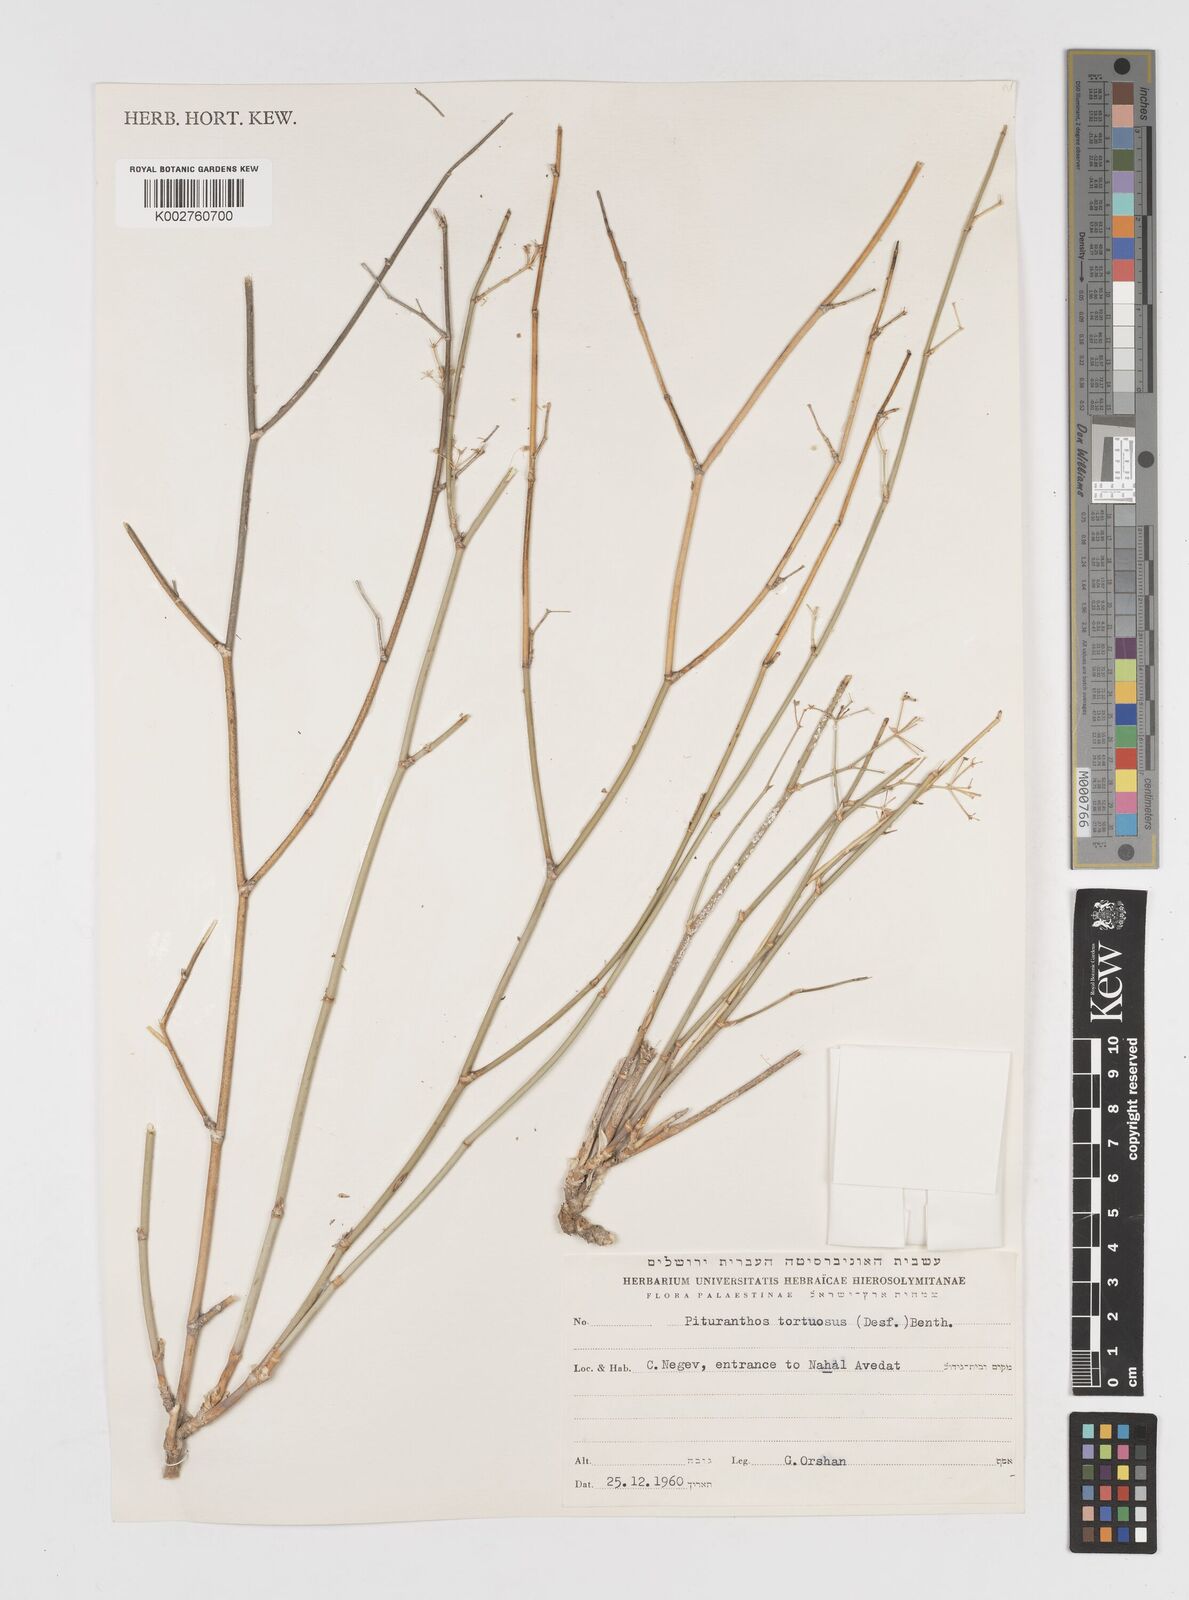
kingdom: Plantae
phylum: Tracheophyta
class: Magnoliopsida
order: Apiales
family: Apiaceae
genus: Deverra
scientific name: Deverra tortuosa
